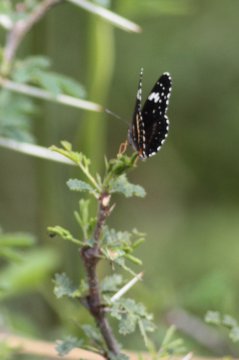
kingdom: Animalia
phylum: Arthropoda
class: Insecta
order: Lepidoptera
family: Nymphalidae
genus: Chlosyne
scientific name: Chlosyne hippodrome
